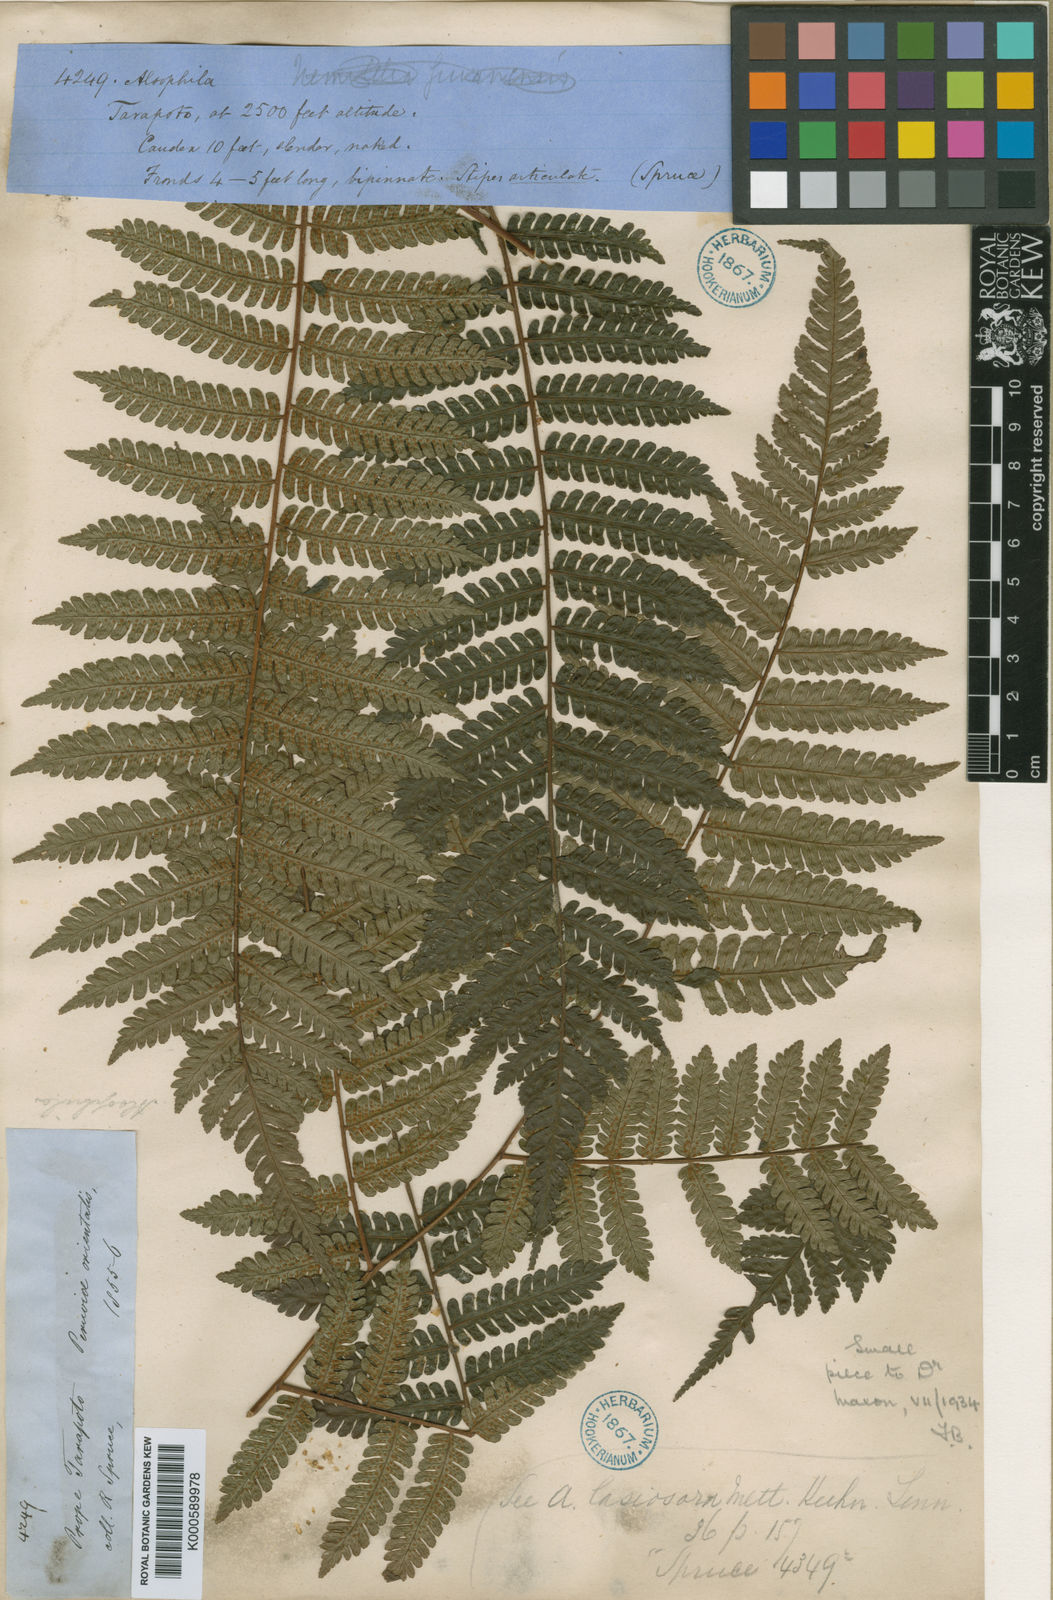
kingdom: Plantae
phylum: Tracheophyta
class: Polypodiopsida
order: Cyatheales
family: Cyatheaceae
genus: Cyathea
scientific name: Cyathea nigra
